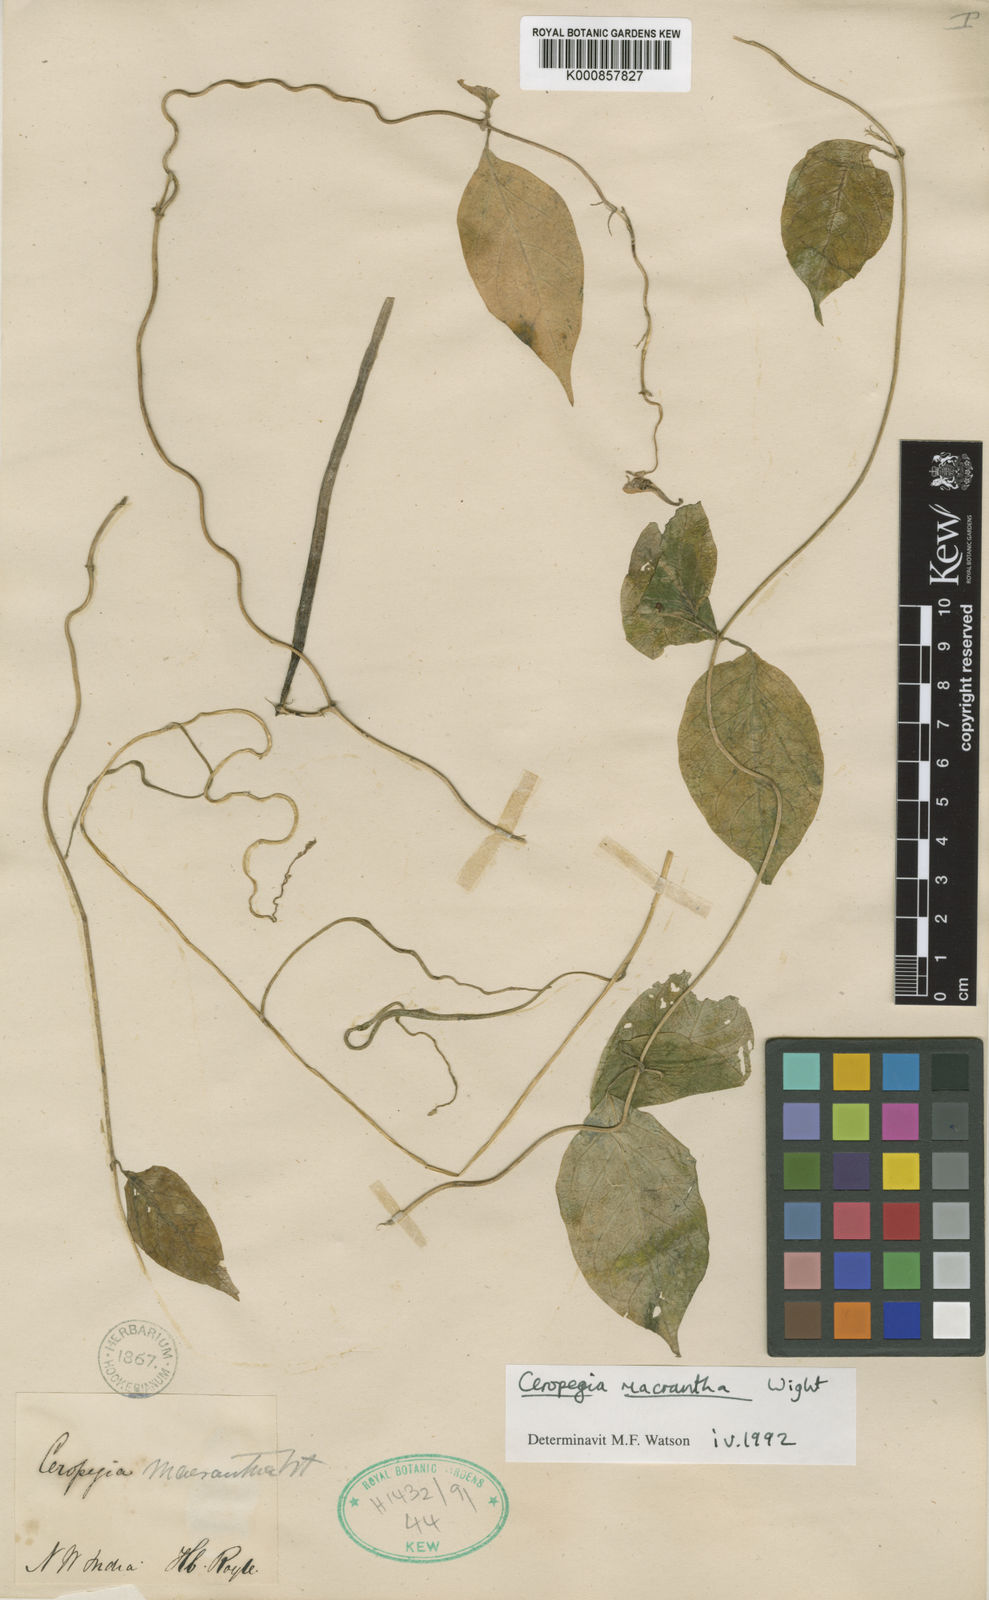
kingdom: Plantae
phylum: Tracheophyta
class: Magnoliopsida
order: Gentianales
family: Apocynaceae
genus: Ceropegia
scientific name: Ceropegia macrantha
